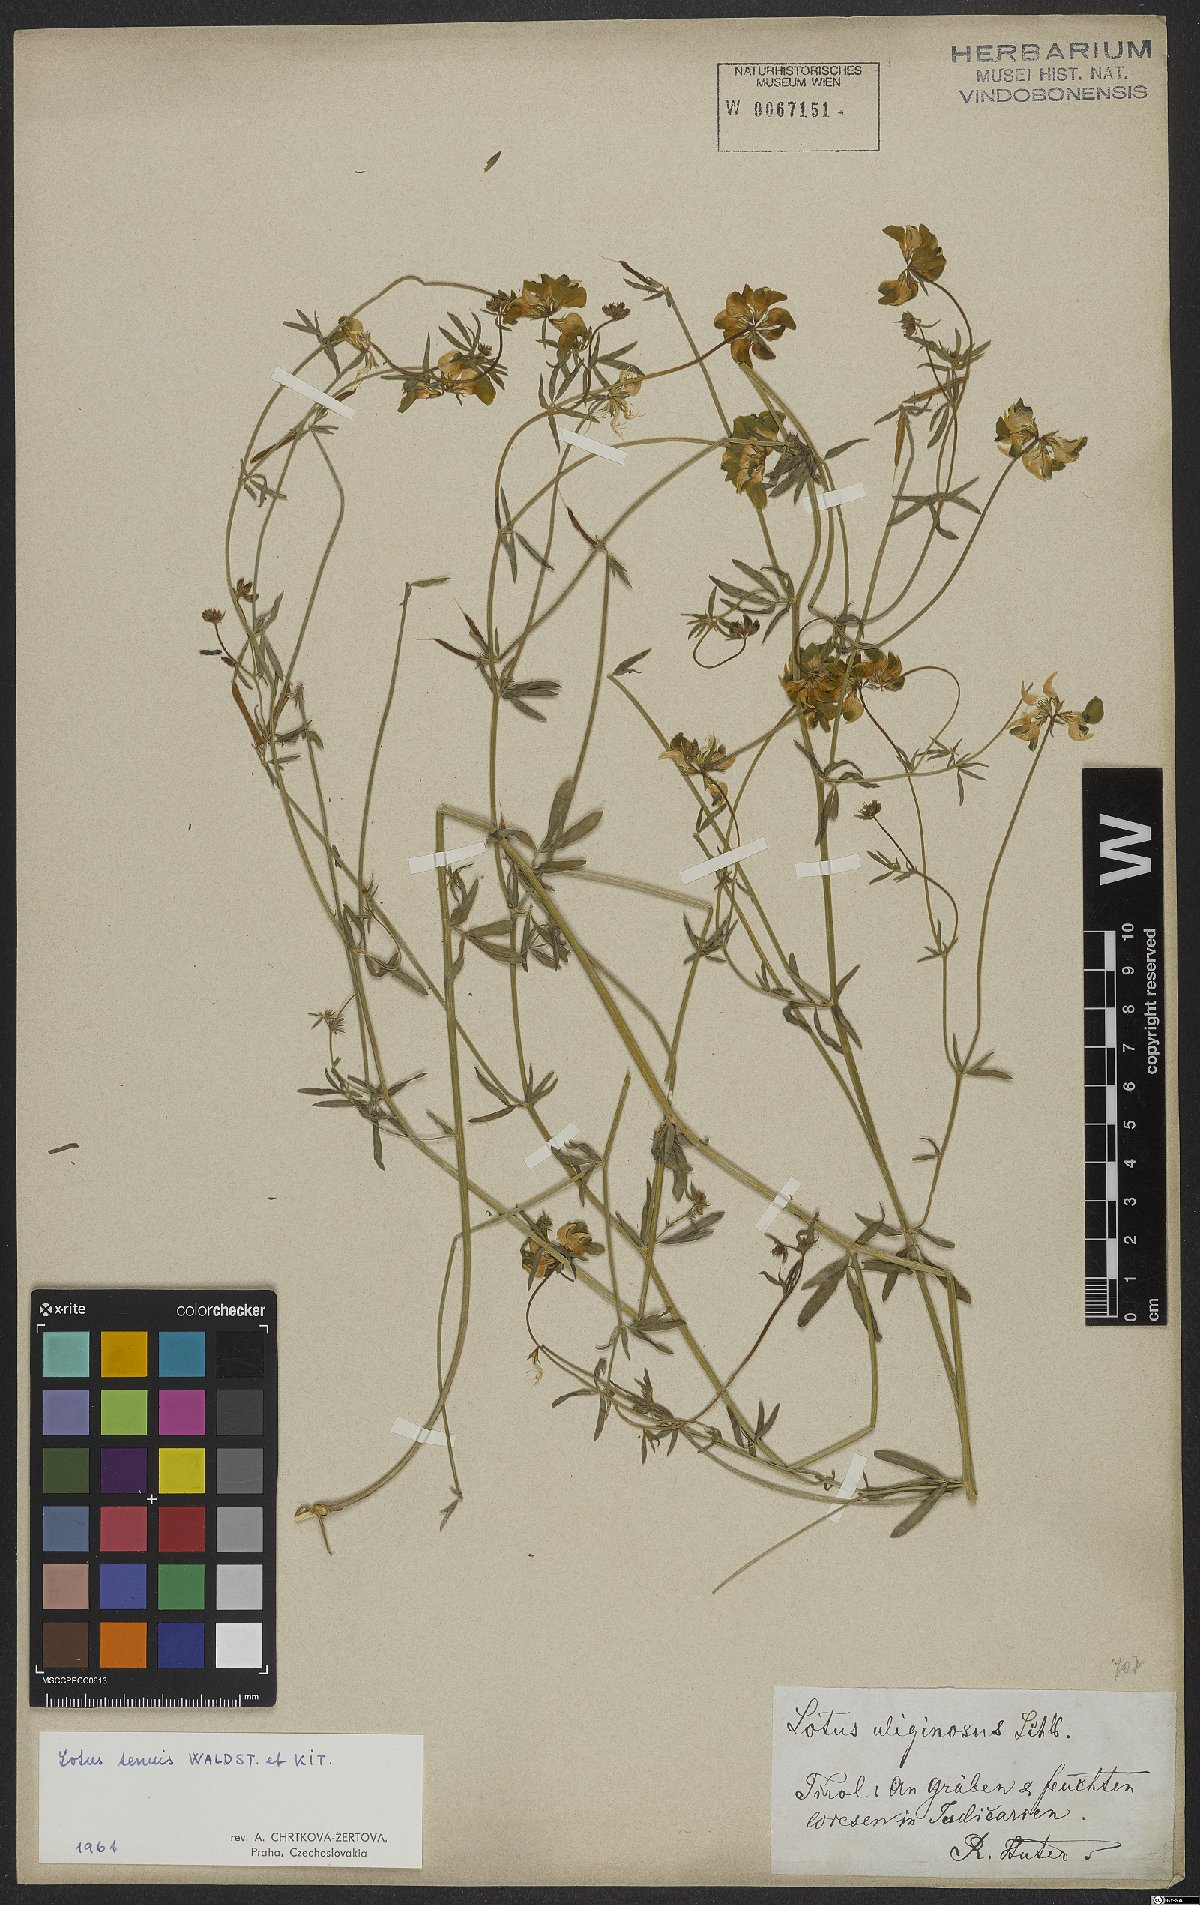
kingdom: Plantae
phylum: Tracheophyta
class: Magnoliopsida
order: Fabales
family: Fabaceae
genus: Lotus
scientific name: Lotus tenuis
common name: Narrow-leaved bird's-foot-trefoil
